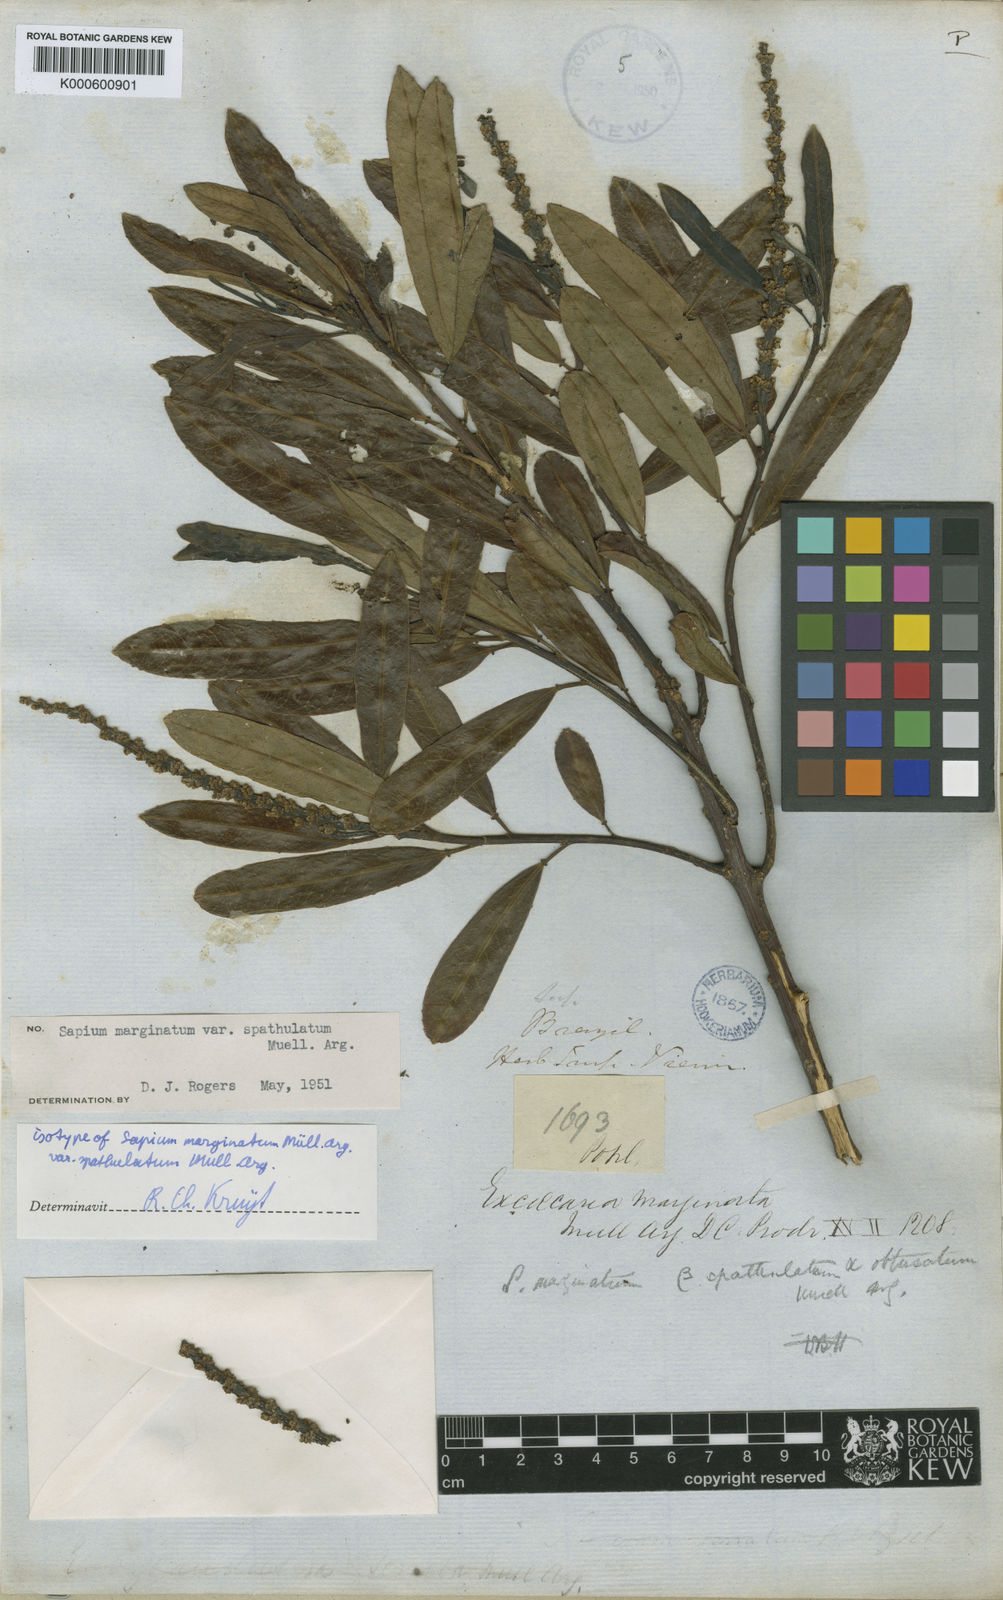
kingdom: Plantae
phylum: Tracheophyta
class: Magnoliopsida
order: Malpighiales
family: Euphorbiaceae
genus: Sapium
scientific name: Sapium
